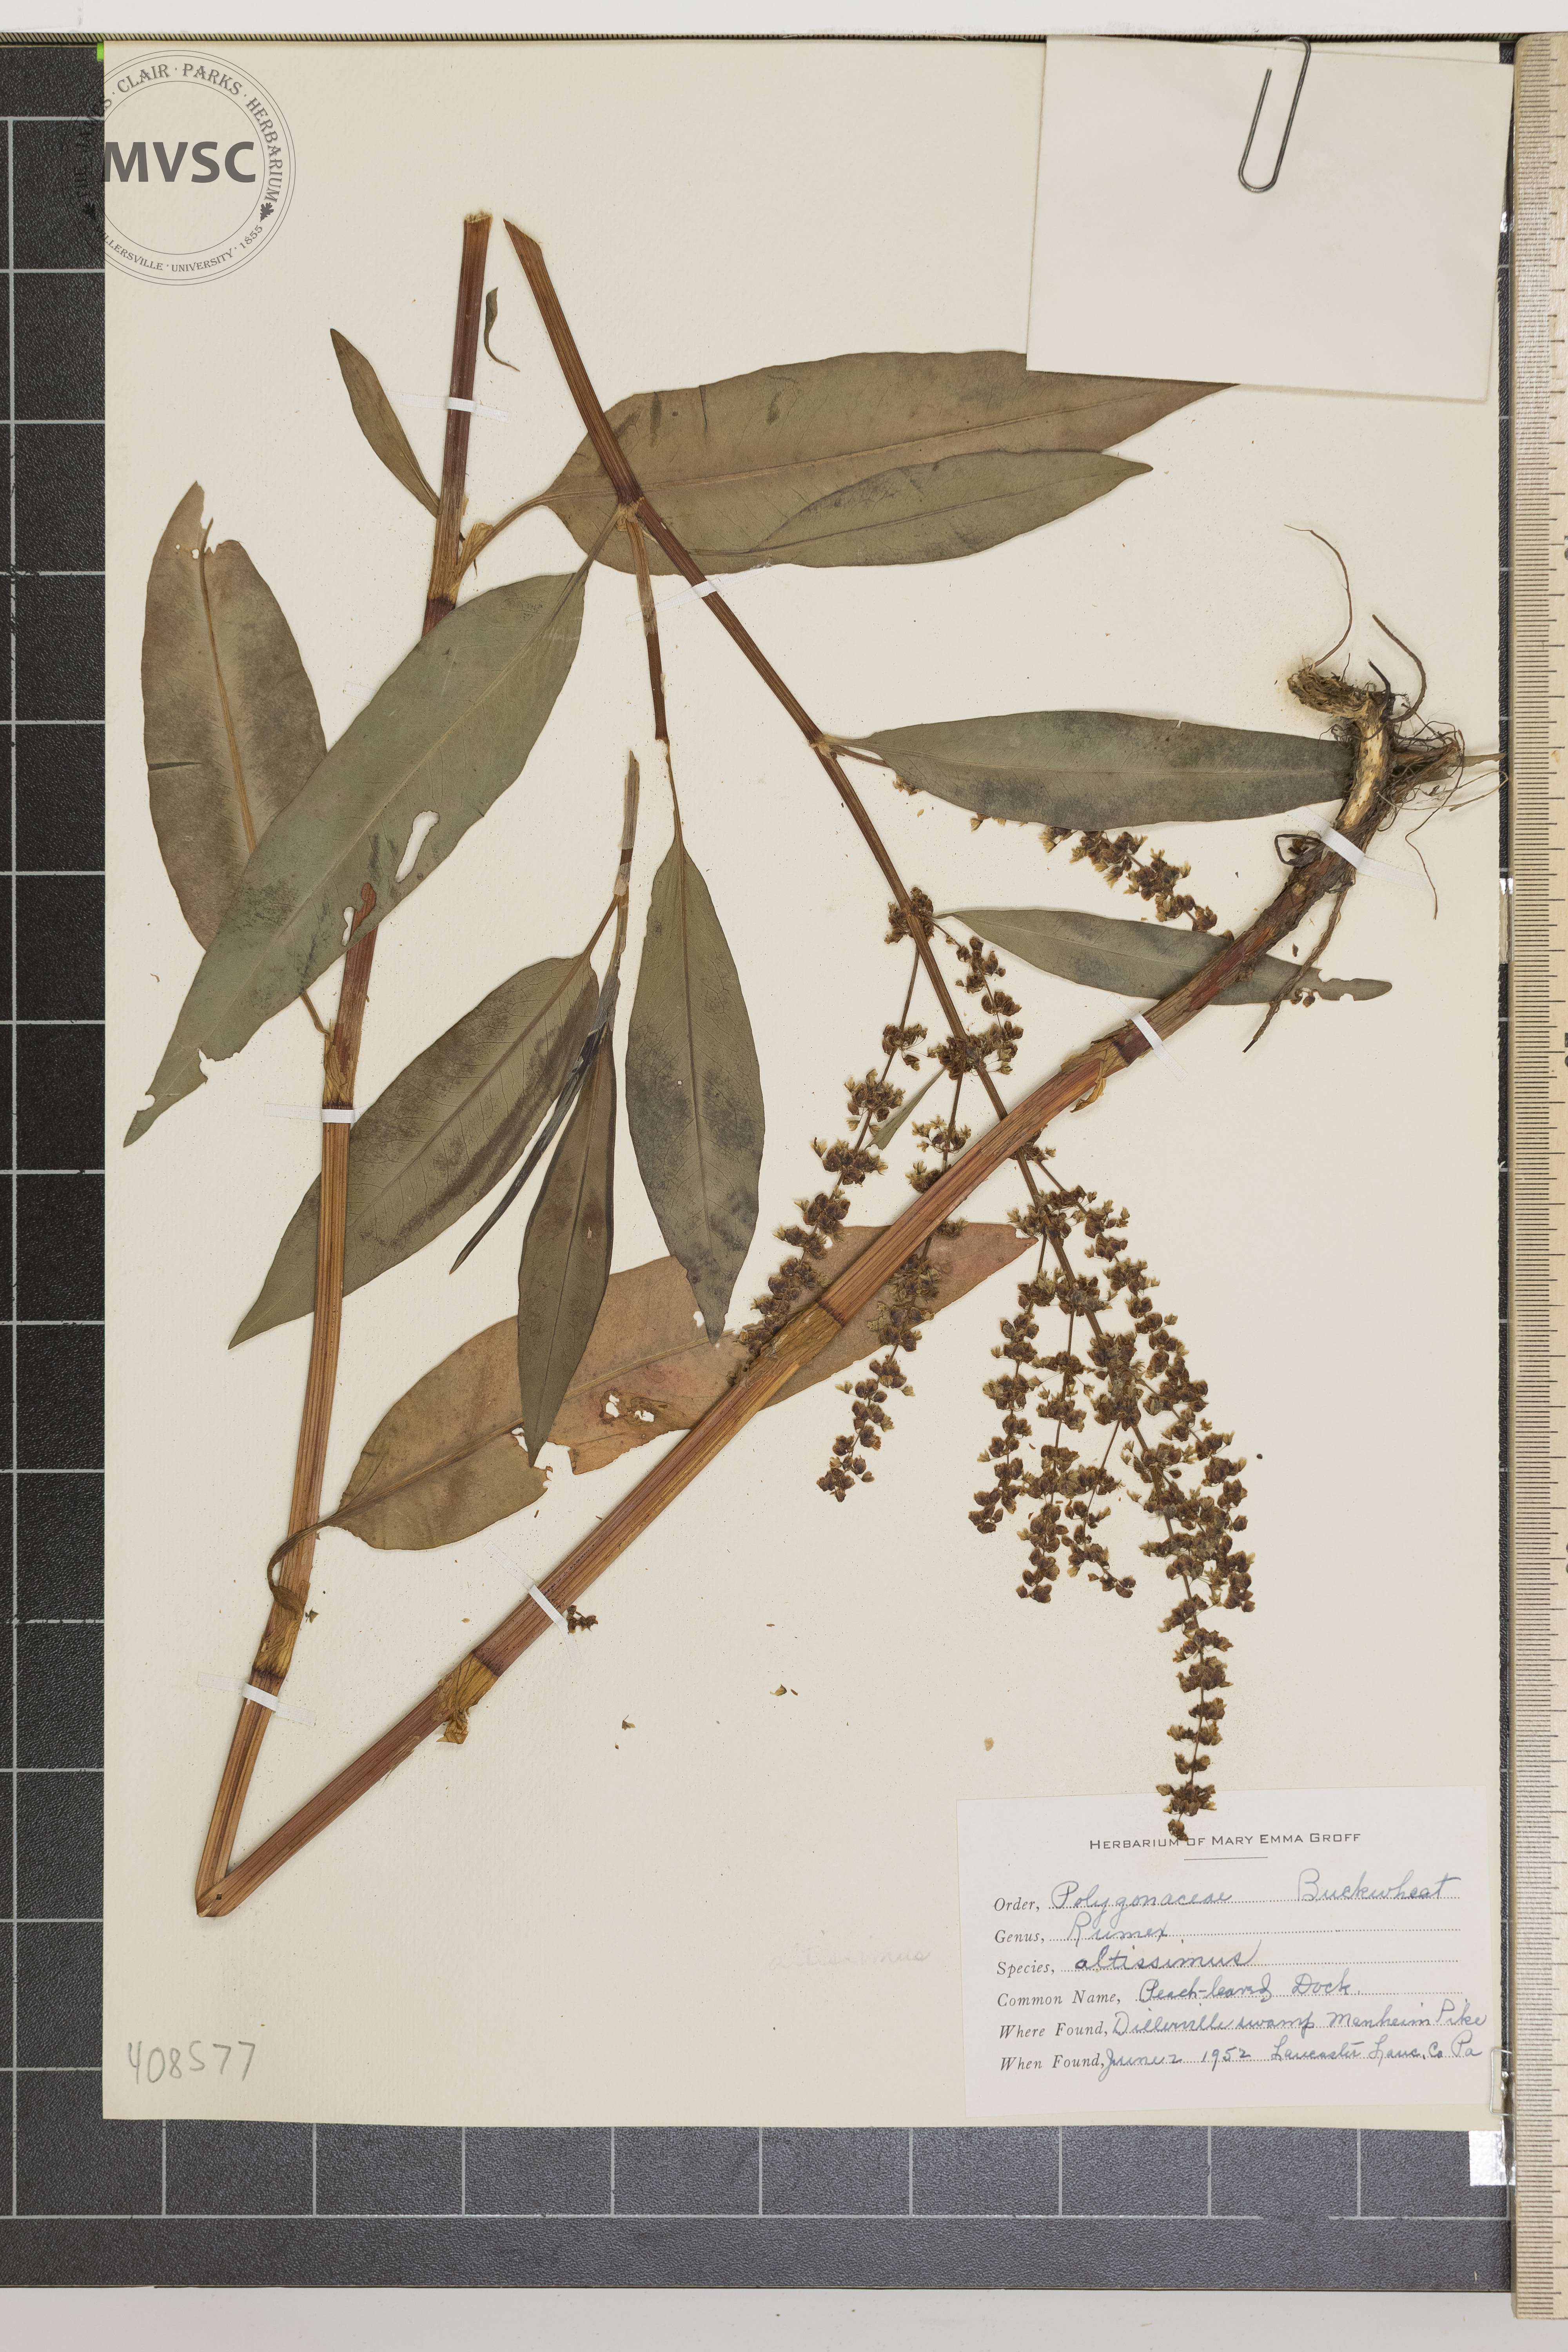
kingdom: Plantae
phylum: Tracheophyta
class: Magnoliopsida
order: Caryophyllales
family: Polygonaceae
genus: Rumex
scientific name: Rumex altissimus
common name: Peach-leaved Dock
